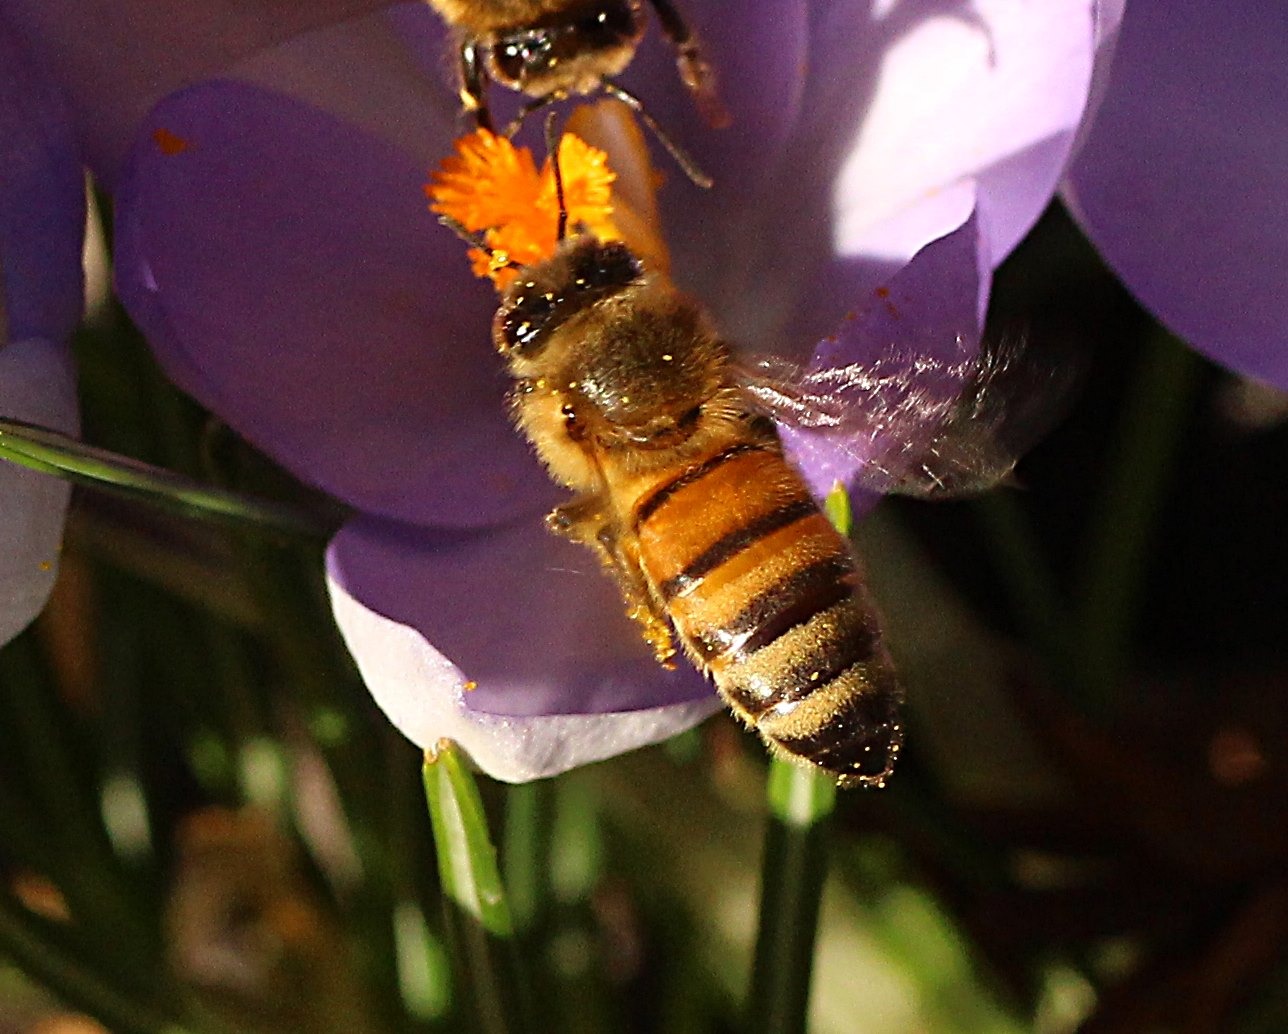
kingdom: Animalia
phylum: Arthropoda
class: Insecta
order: Hymenoptera
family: Apidae
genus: Apis
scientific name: Apis mellifera
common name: Honningbi
